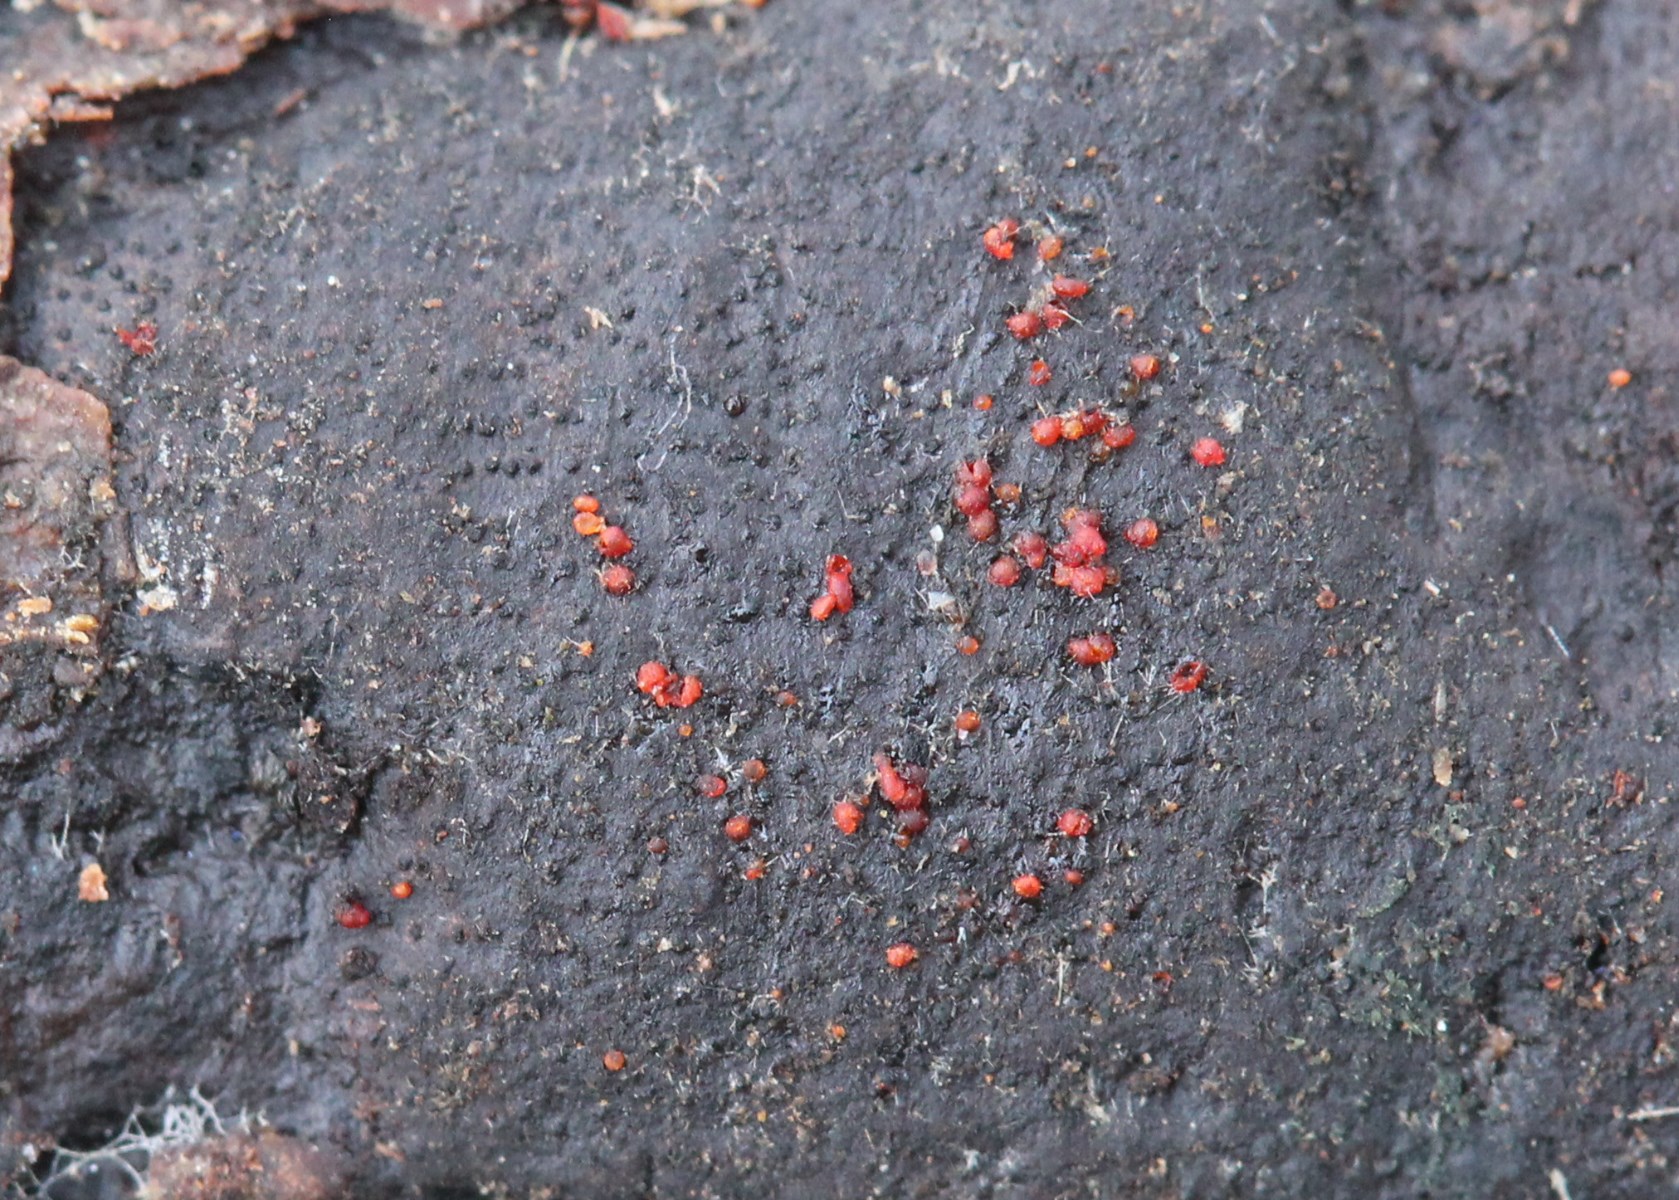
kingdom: Fungi
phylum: Ascomycota
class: Sordariomycetes
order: Hypocreales
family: Nectriaceae
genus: Dialonectria
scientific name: Dialonectria episphaeria
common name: kulskorpe-cinnobersvamp
